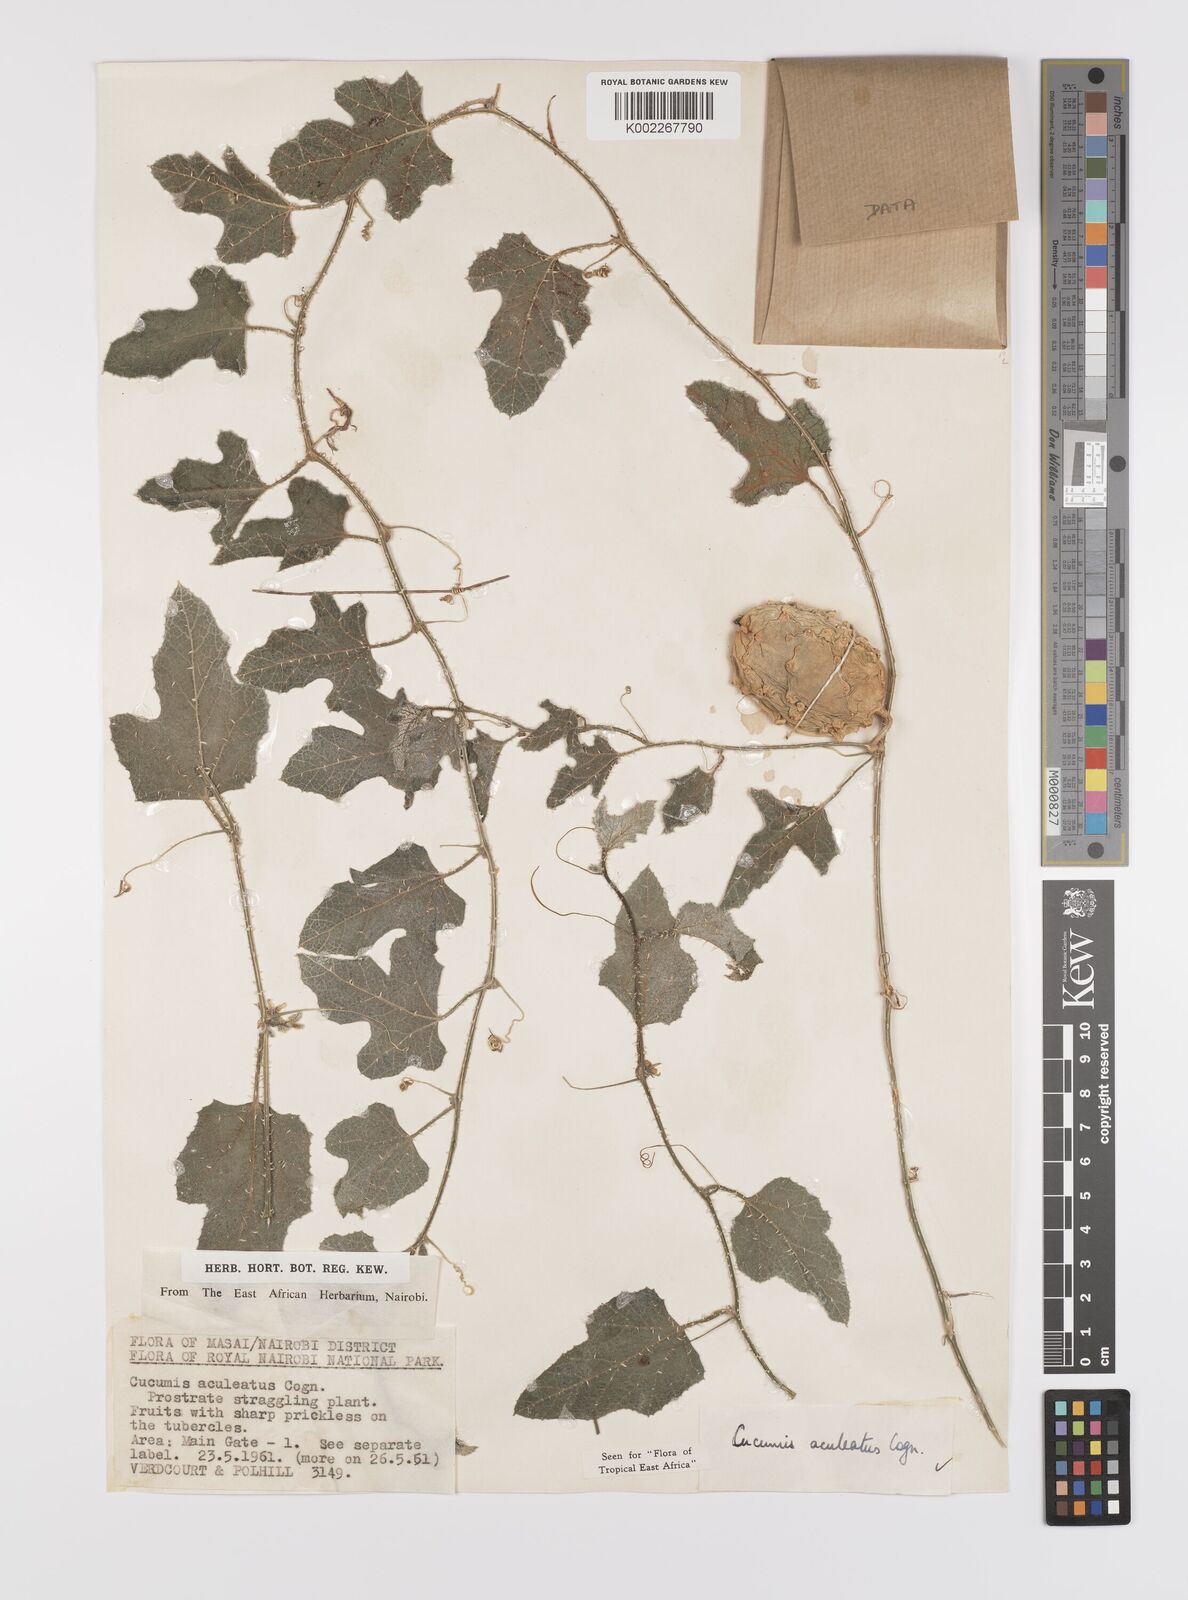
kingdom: Plantae
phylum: Tracheophyta
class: Magnoliopsida
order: Cucurbitales
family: Cucurbitaceae
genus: Cucumis
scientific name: Cucumis aculeatus
